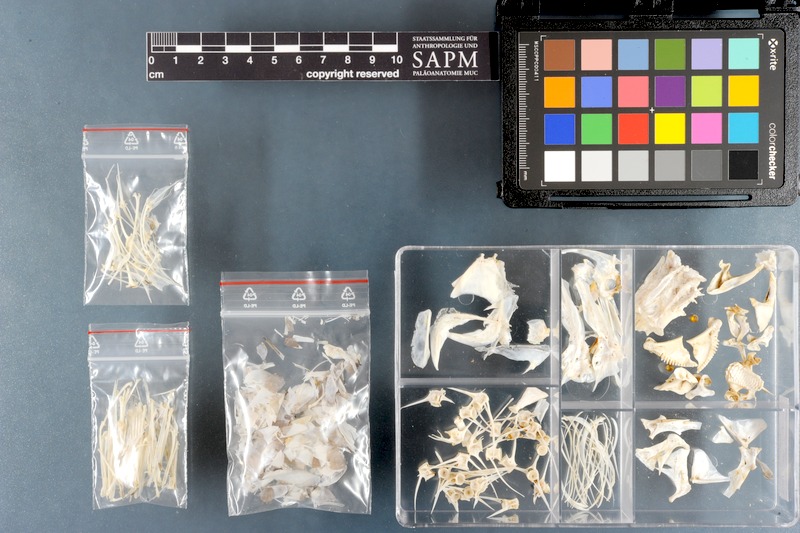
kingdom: Animalia
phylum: Chordata
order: Perciformes
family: Scaridae
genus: Chlorurus
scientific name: Chlorurus sordidus
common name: Bullethead parrotfish
